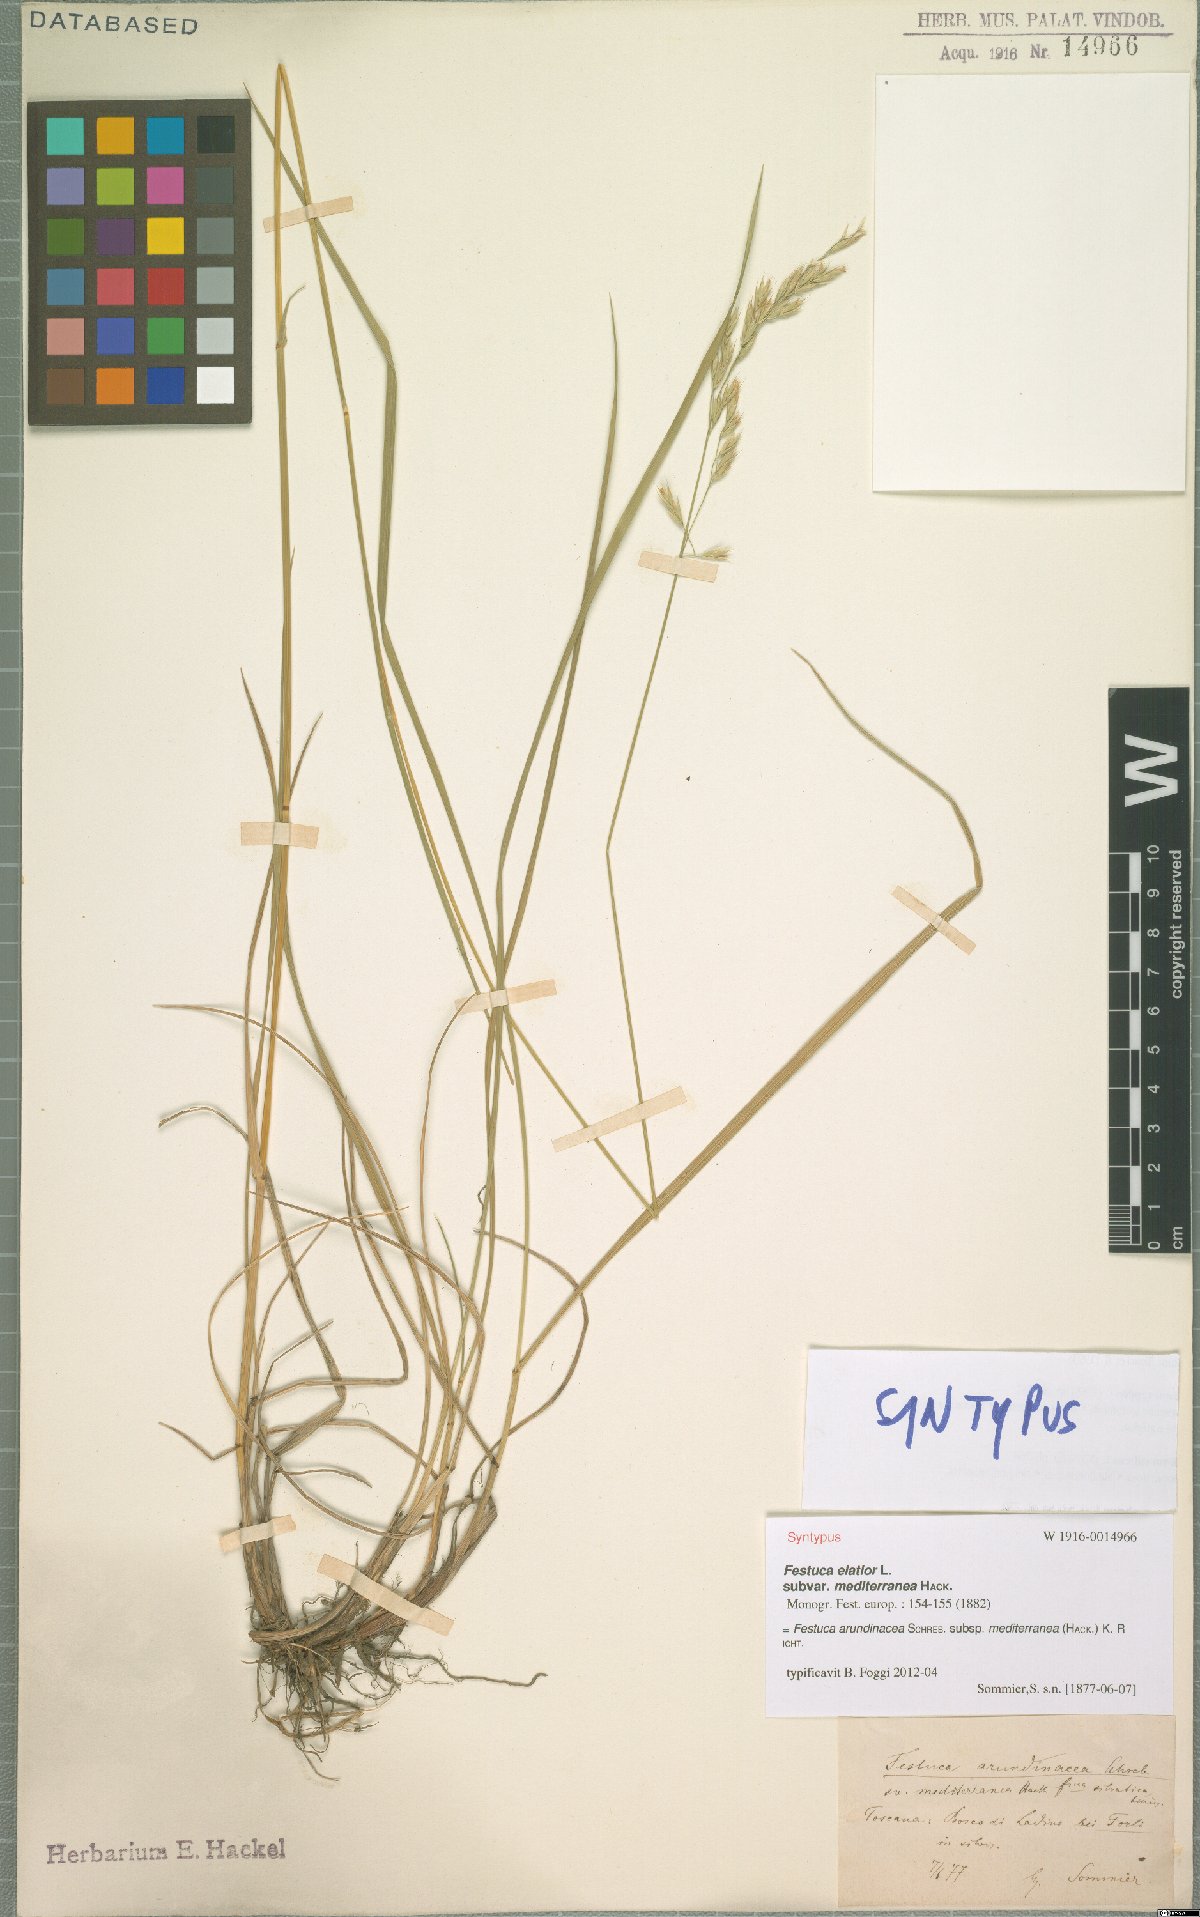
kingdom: Plantae
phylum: Tracheophyta
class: Liliopsida
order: Poales
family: Poaceae
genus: Lolium
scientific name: Lolium mediterraneum
